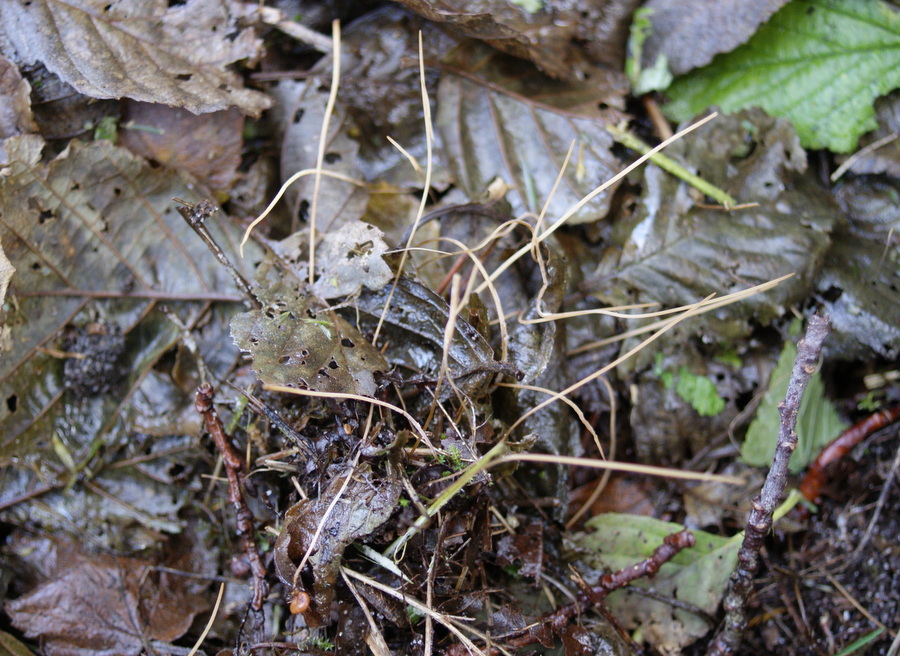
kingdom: Fungi
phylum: Basidiomycota
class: Agaricomycetes
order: Agaricales
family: Typhulaceae
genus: Macrotyphula
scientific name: Macrotyphula phacorrhiza
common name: lang rørkølle
